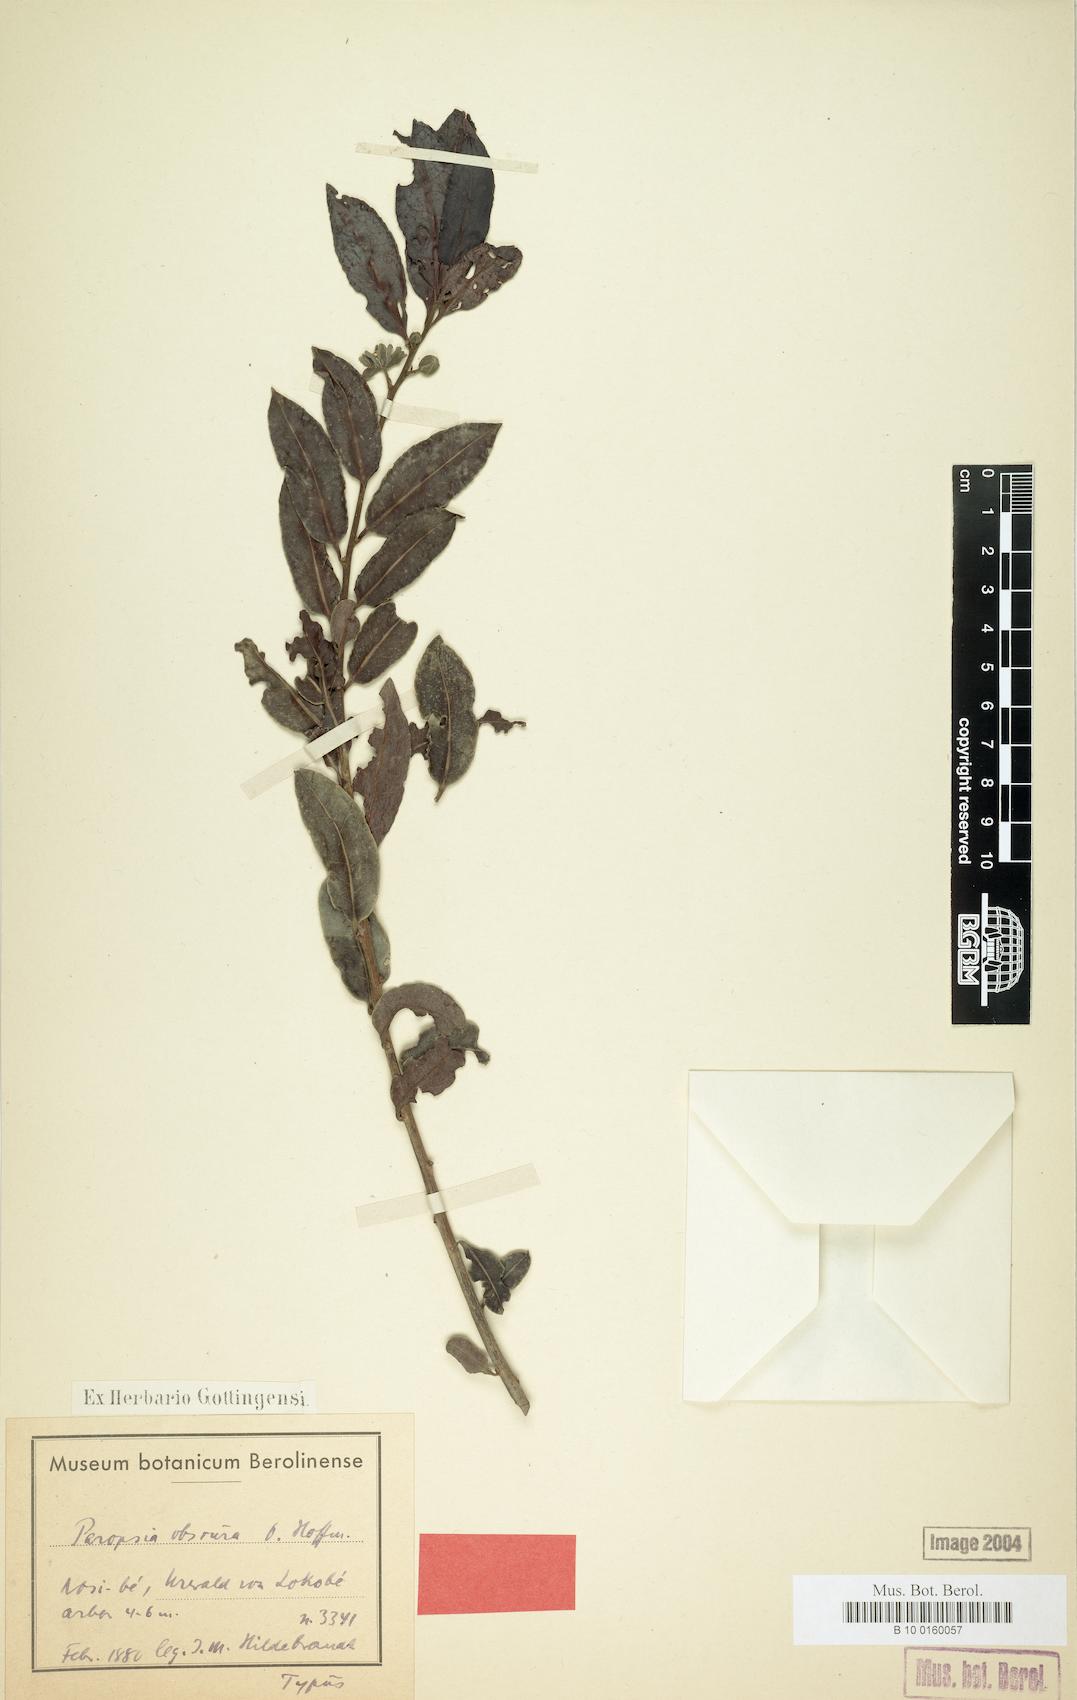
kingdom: Plantae
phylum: Tracheophyta
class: Magnoliopsida
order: Malpighiales
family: Passifloraceae
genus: Paropsia
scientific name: Paropsia obscura
